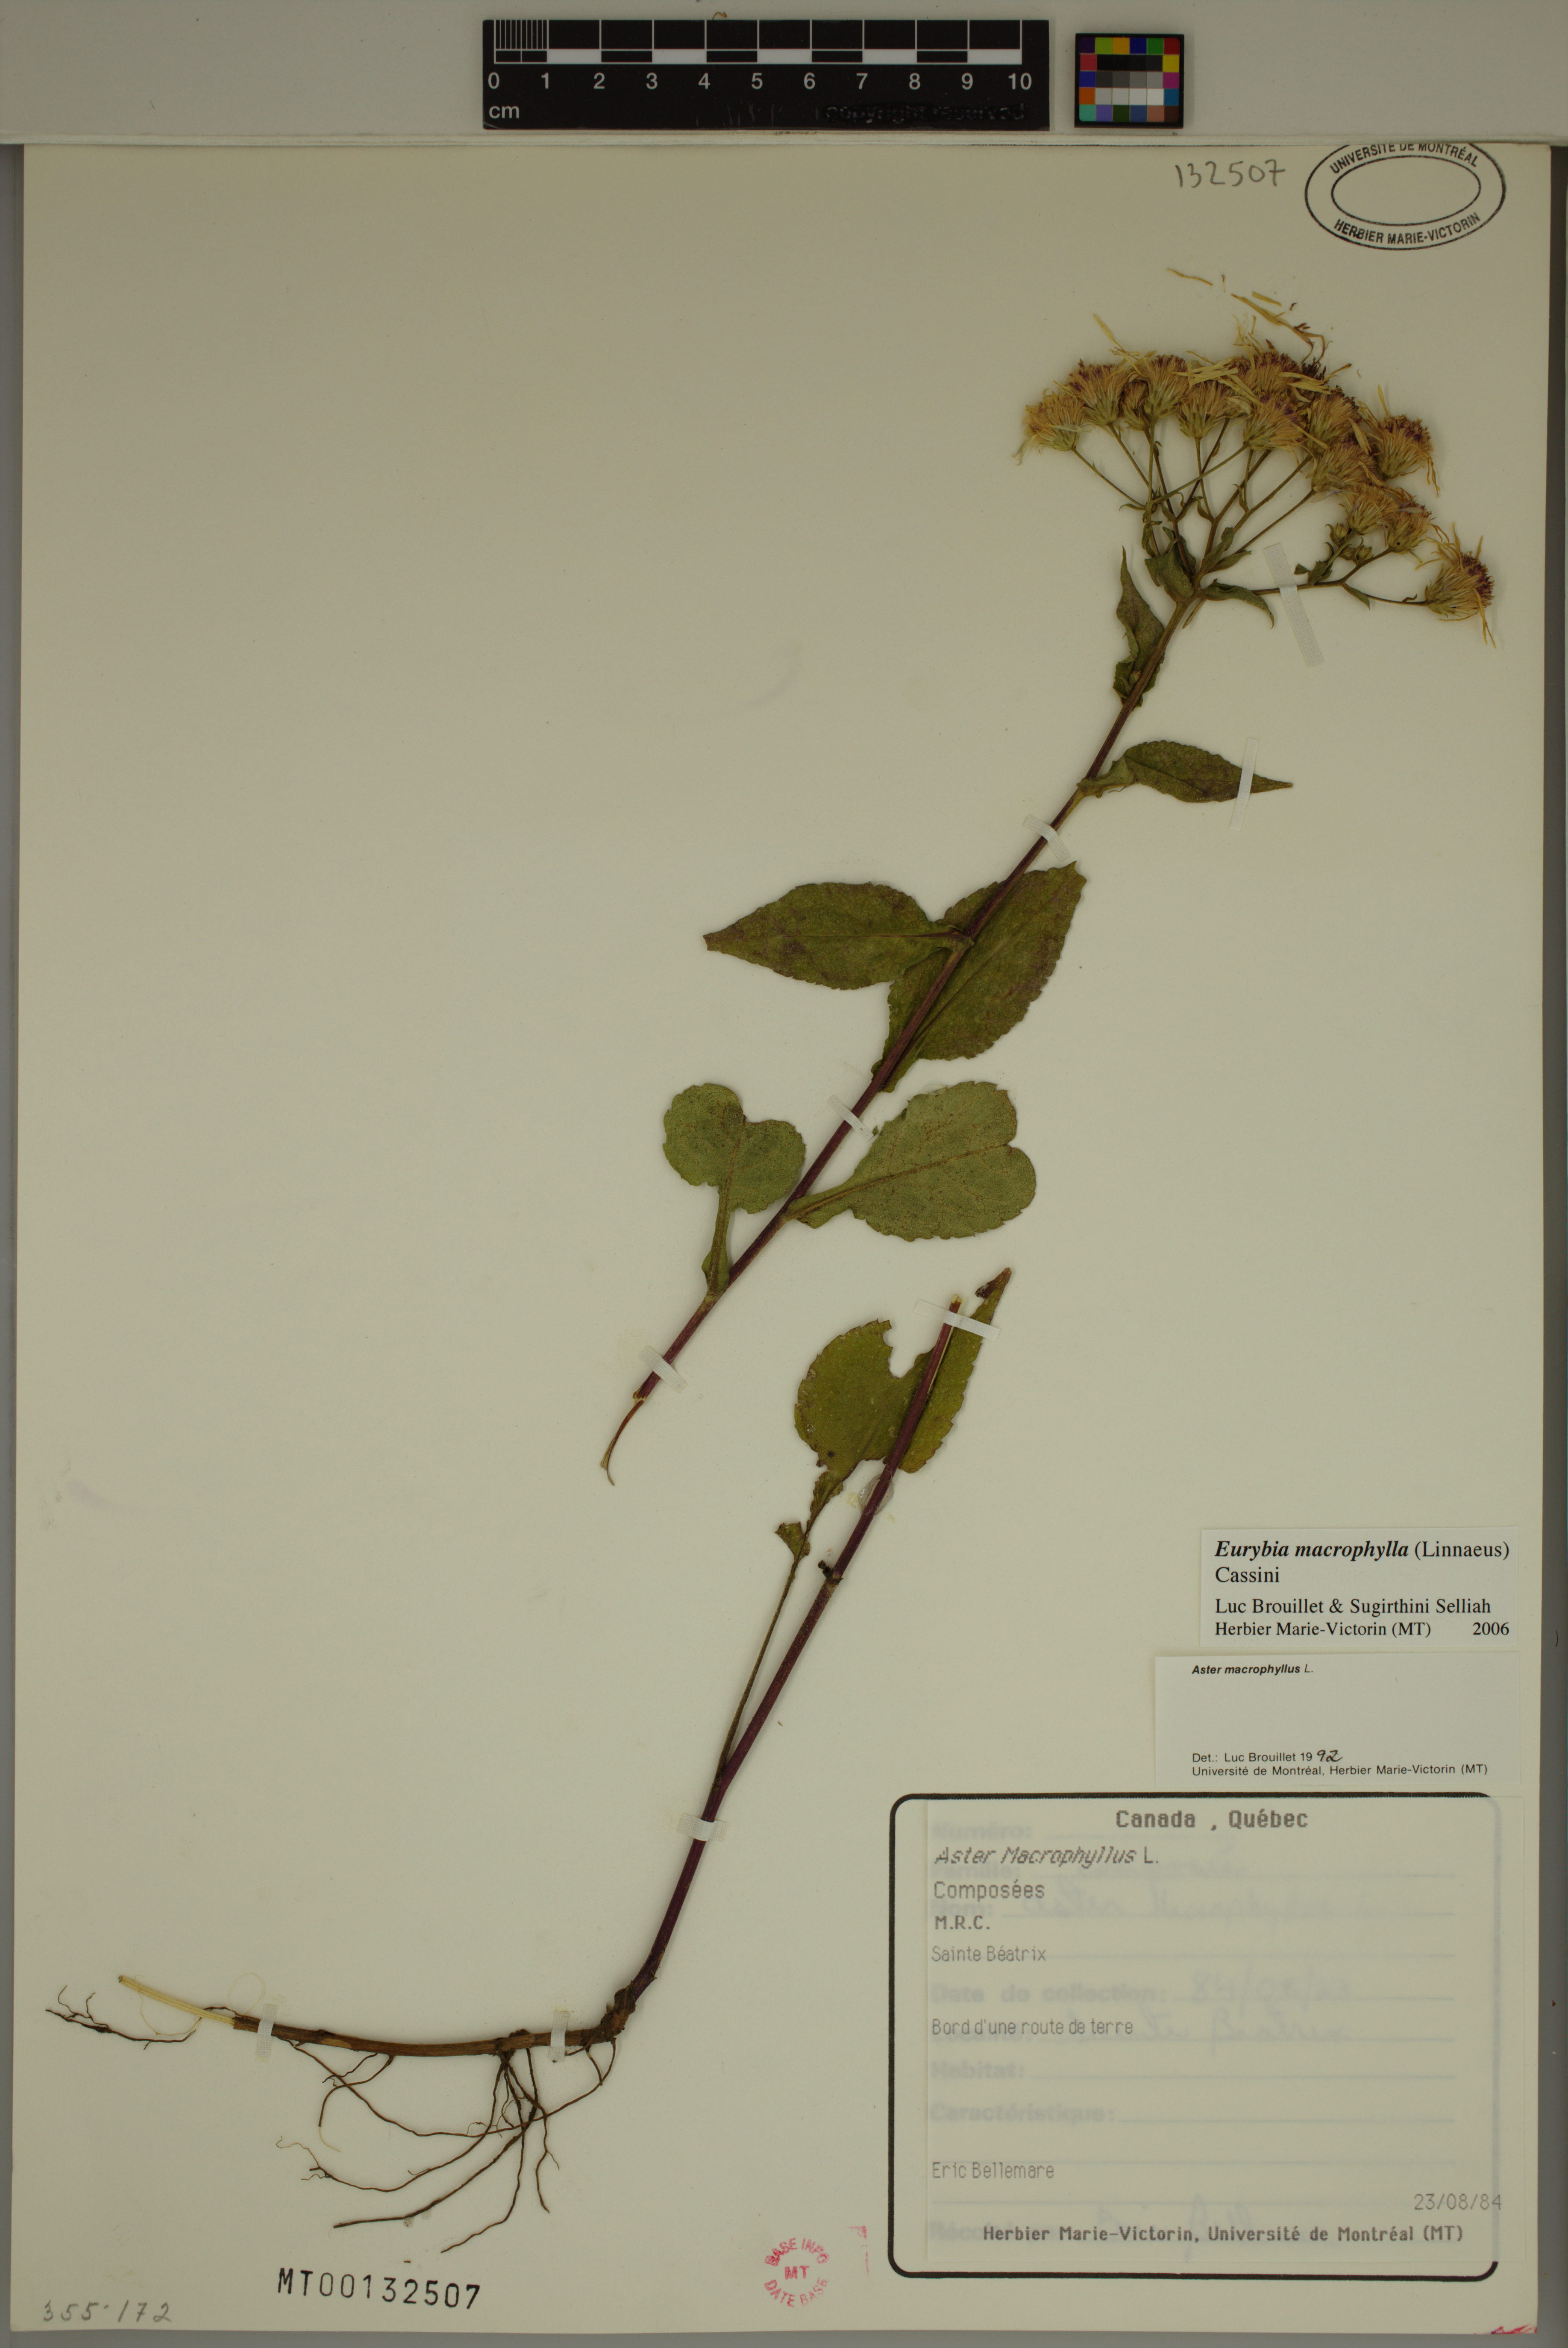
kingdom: Plantae
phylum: Tracheophyta
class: Magnoliopsida
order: Asterales
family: Asteraceae
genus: Eurybia
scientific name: Eurybia macrophylla
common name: Big-leaved aster
